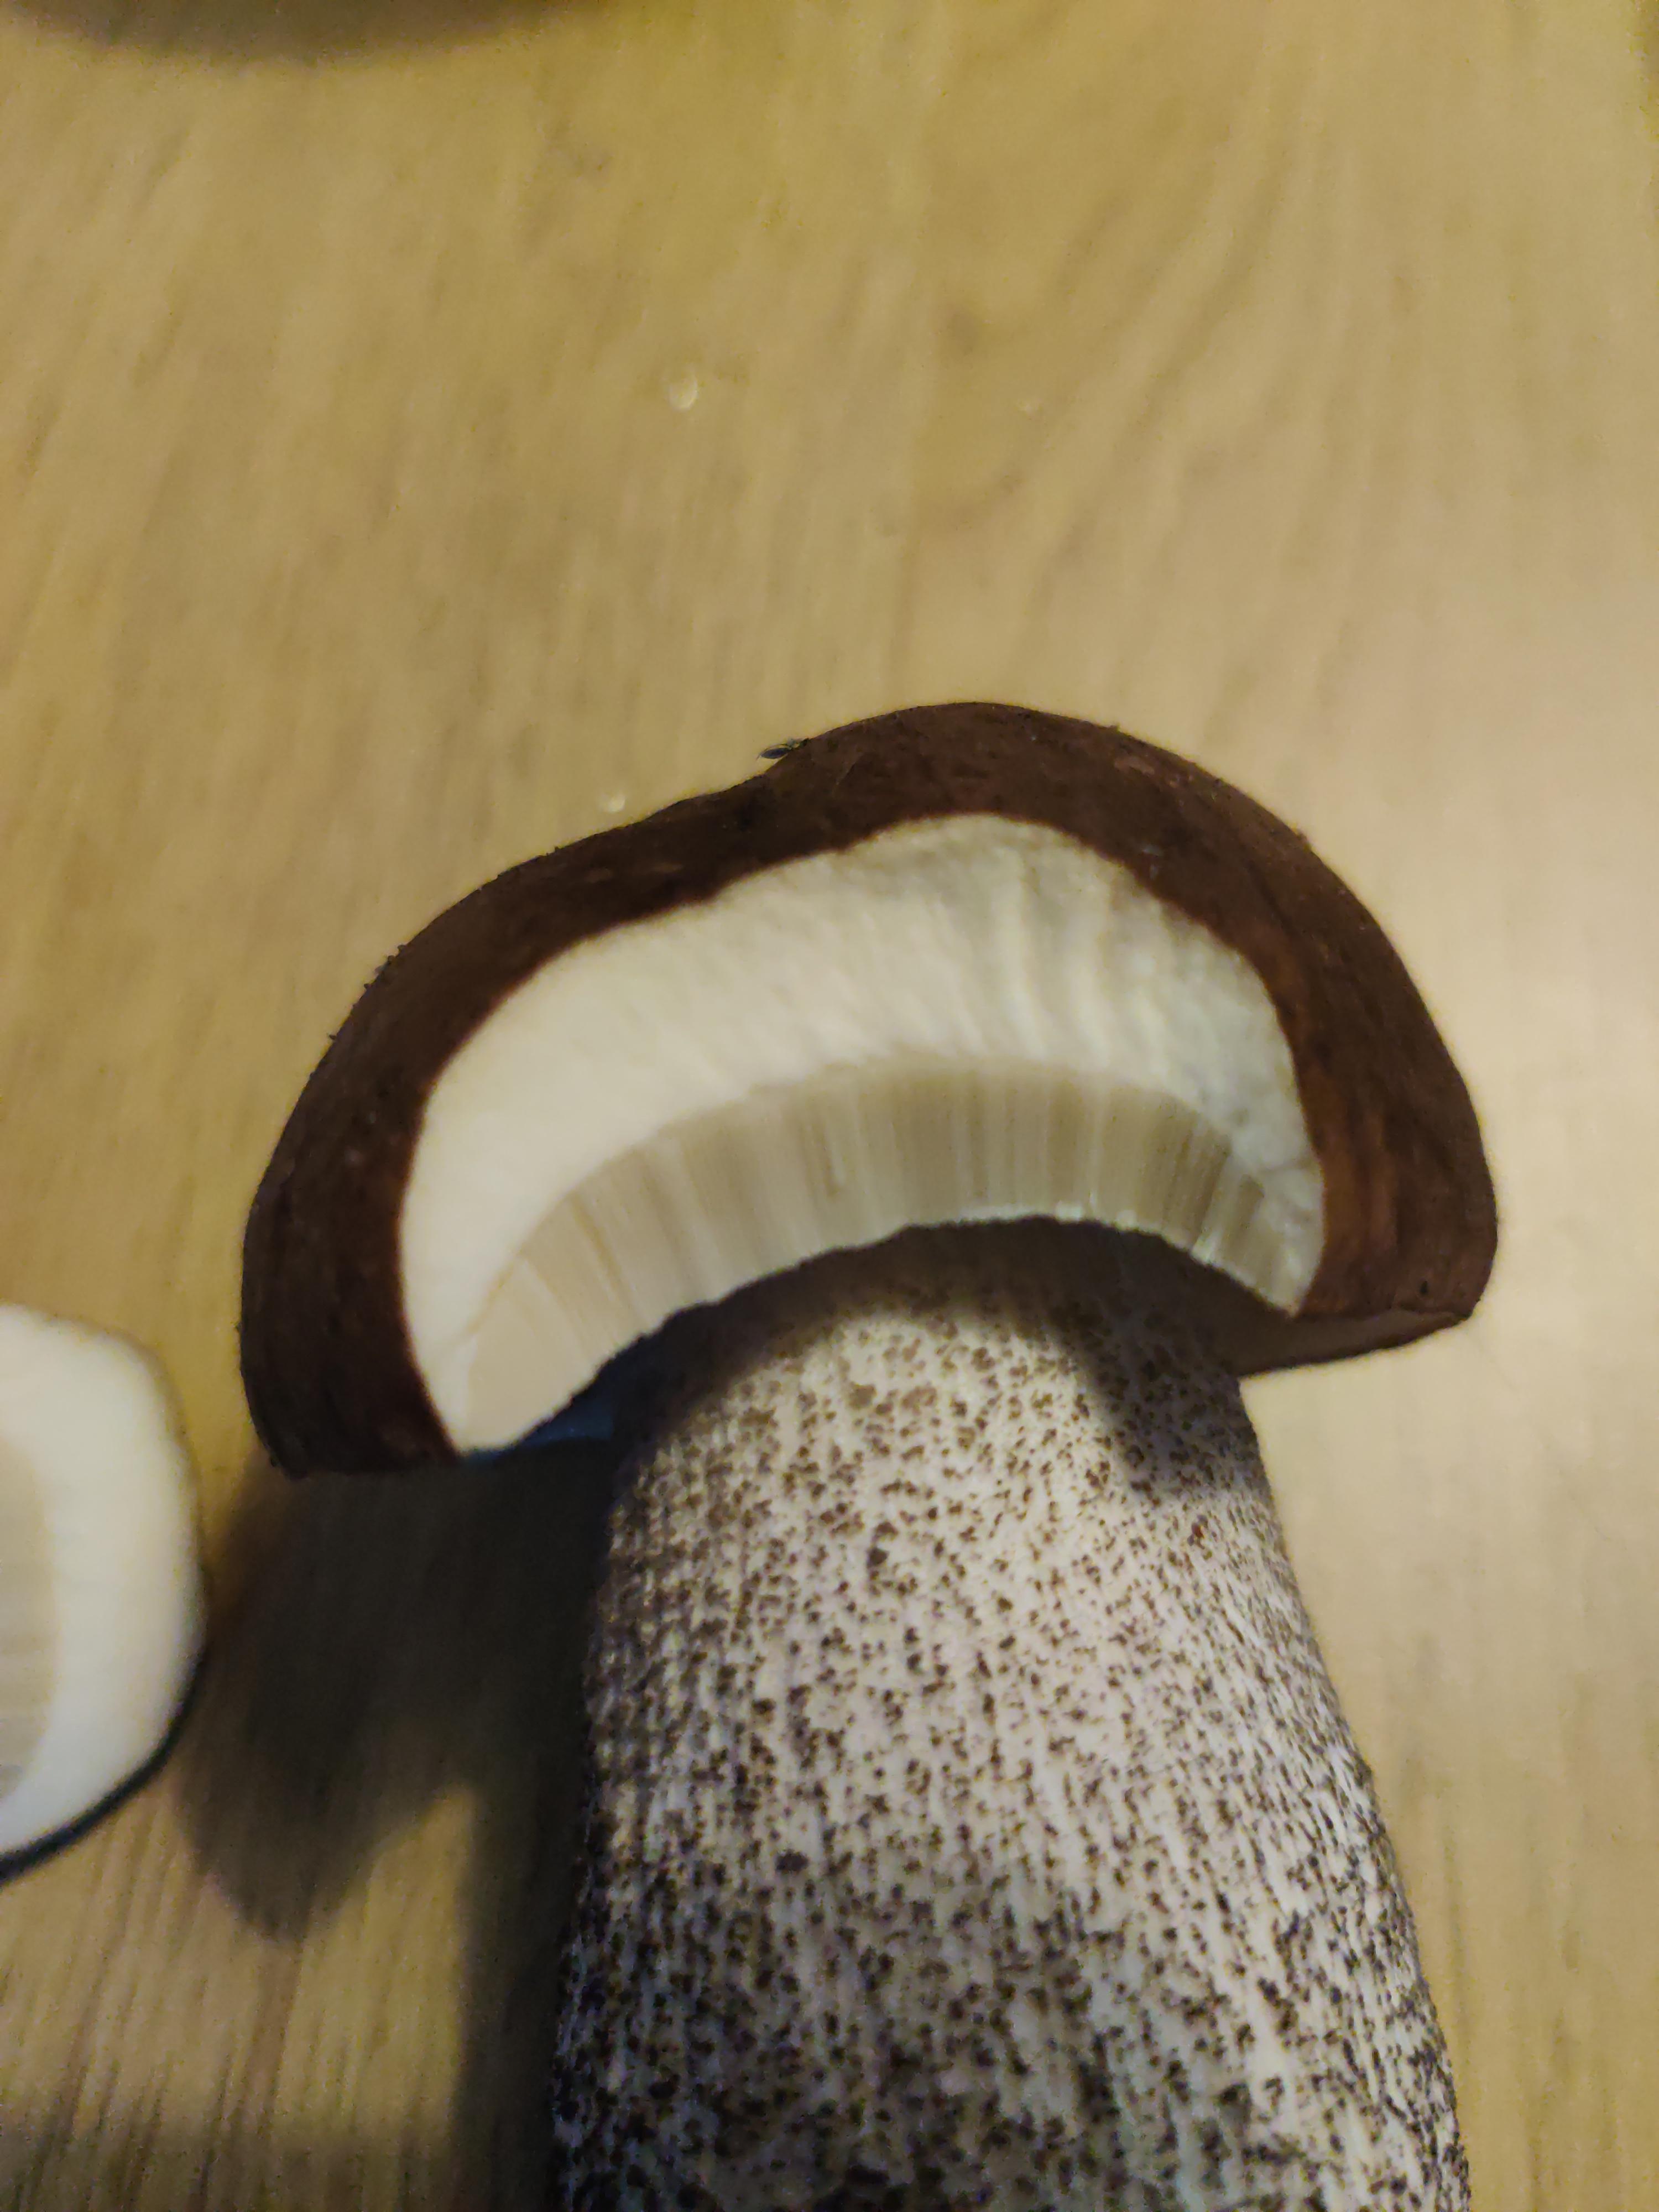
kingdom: Fungi
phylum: Basidiomycota
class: Agaricomycetes
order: Boletales
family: Boletaceae
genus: Leccinum
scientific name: Leccinum
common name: skælrørhat
